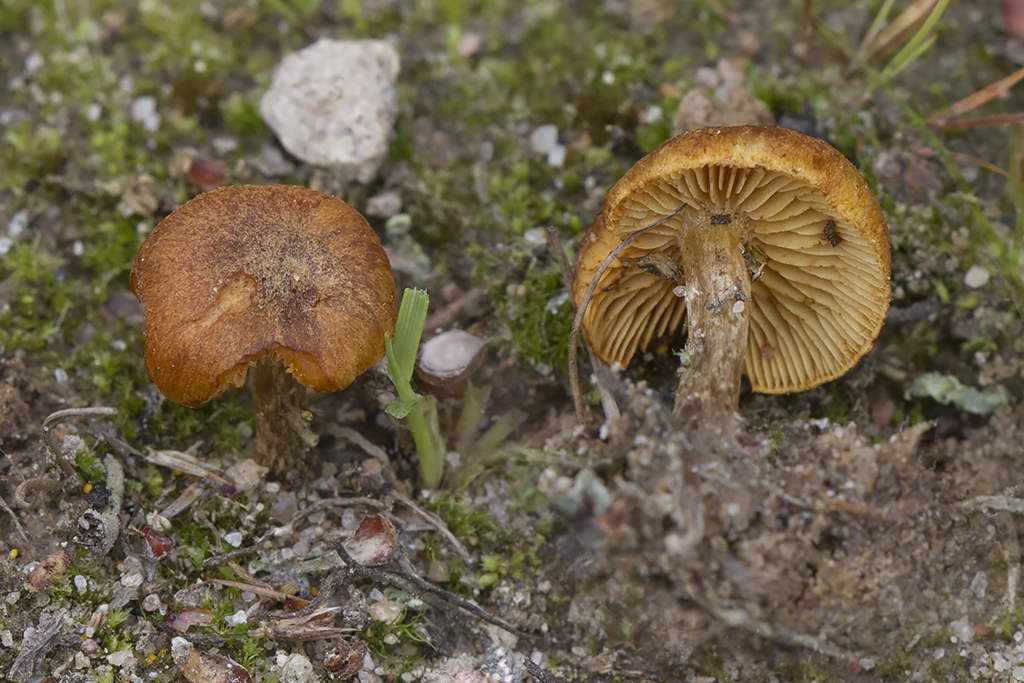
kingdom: Fungi
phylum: Basidiomycota
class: Agaricomycetes
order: Agaricales
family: Hymenogastraceae
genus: Gymnopilus
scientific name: Gymnopilus odini
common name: kul-flammehat
